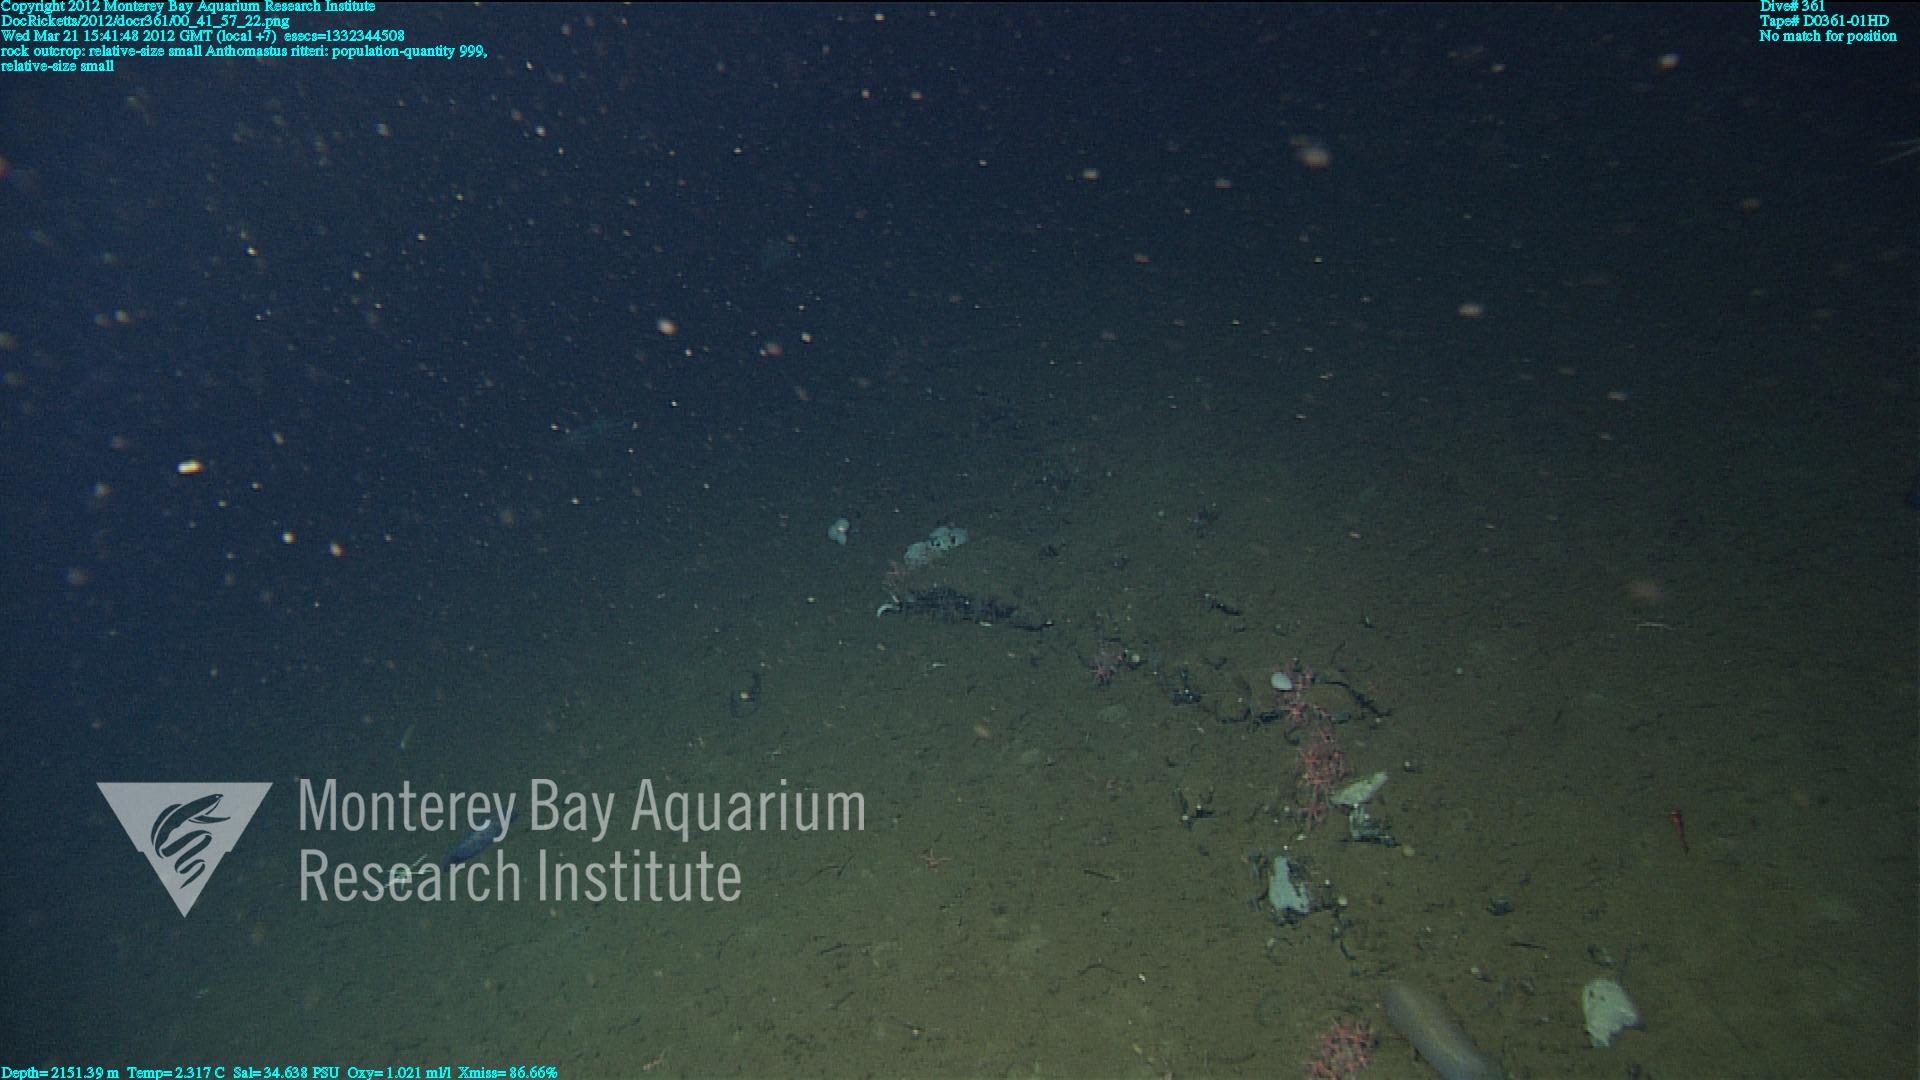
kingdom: Animalia
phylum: Cnidaria
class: Anthozoa
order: Scleralcyonacea
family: Coralliidae
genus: Heteropolypus
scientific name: Heteropolypus ritteri
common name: Ritter's soft coral
